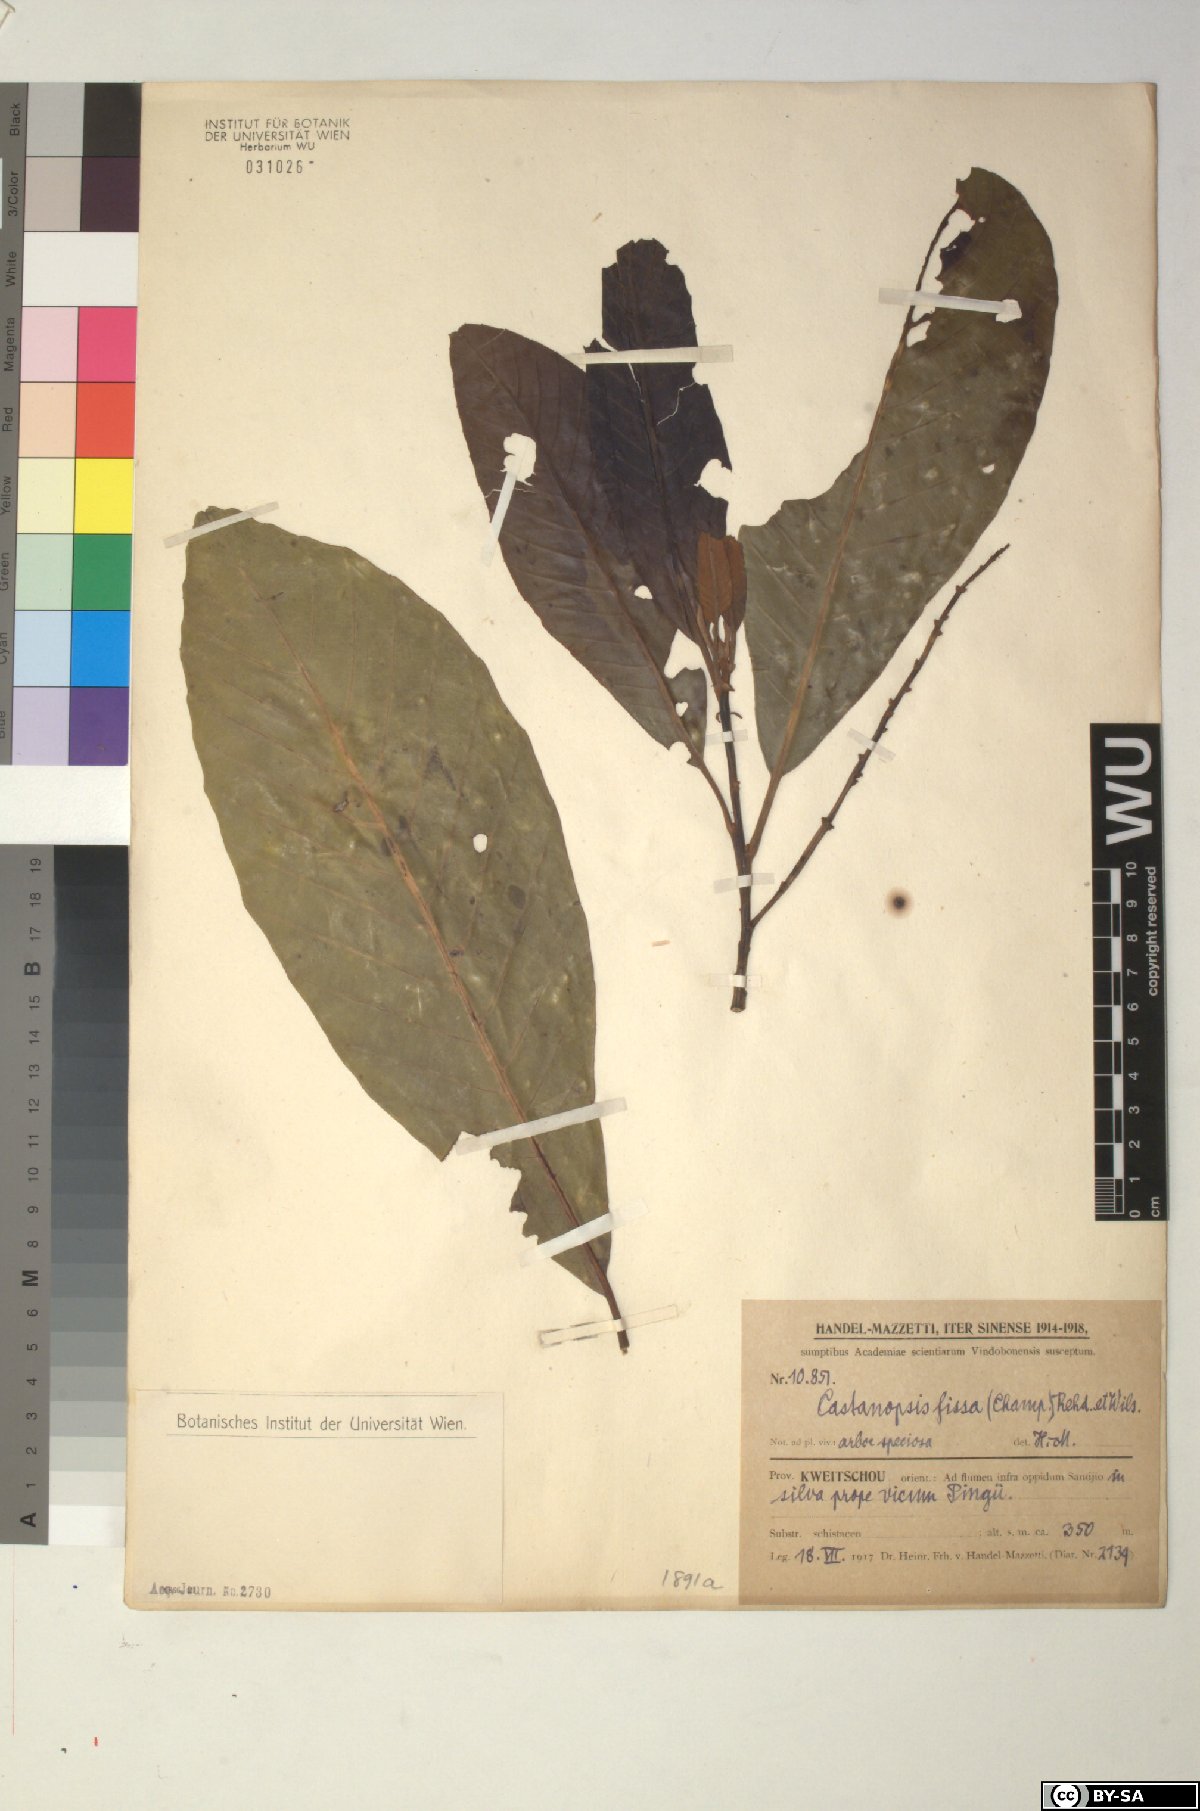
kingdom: Plantae
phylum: Tracheophyta
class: Magnoliopsida
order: Fagales
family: Fagaceae
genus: Castanopsis
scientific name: Castanopsis fissa
